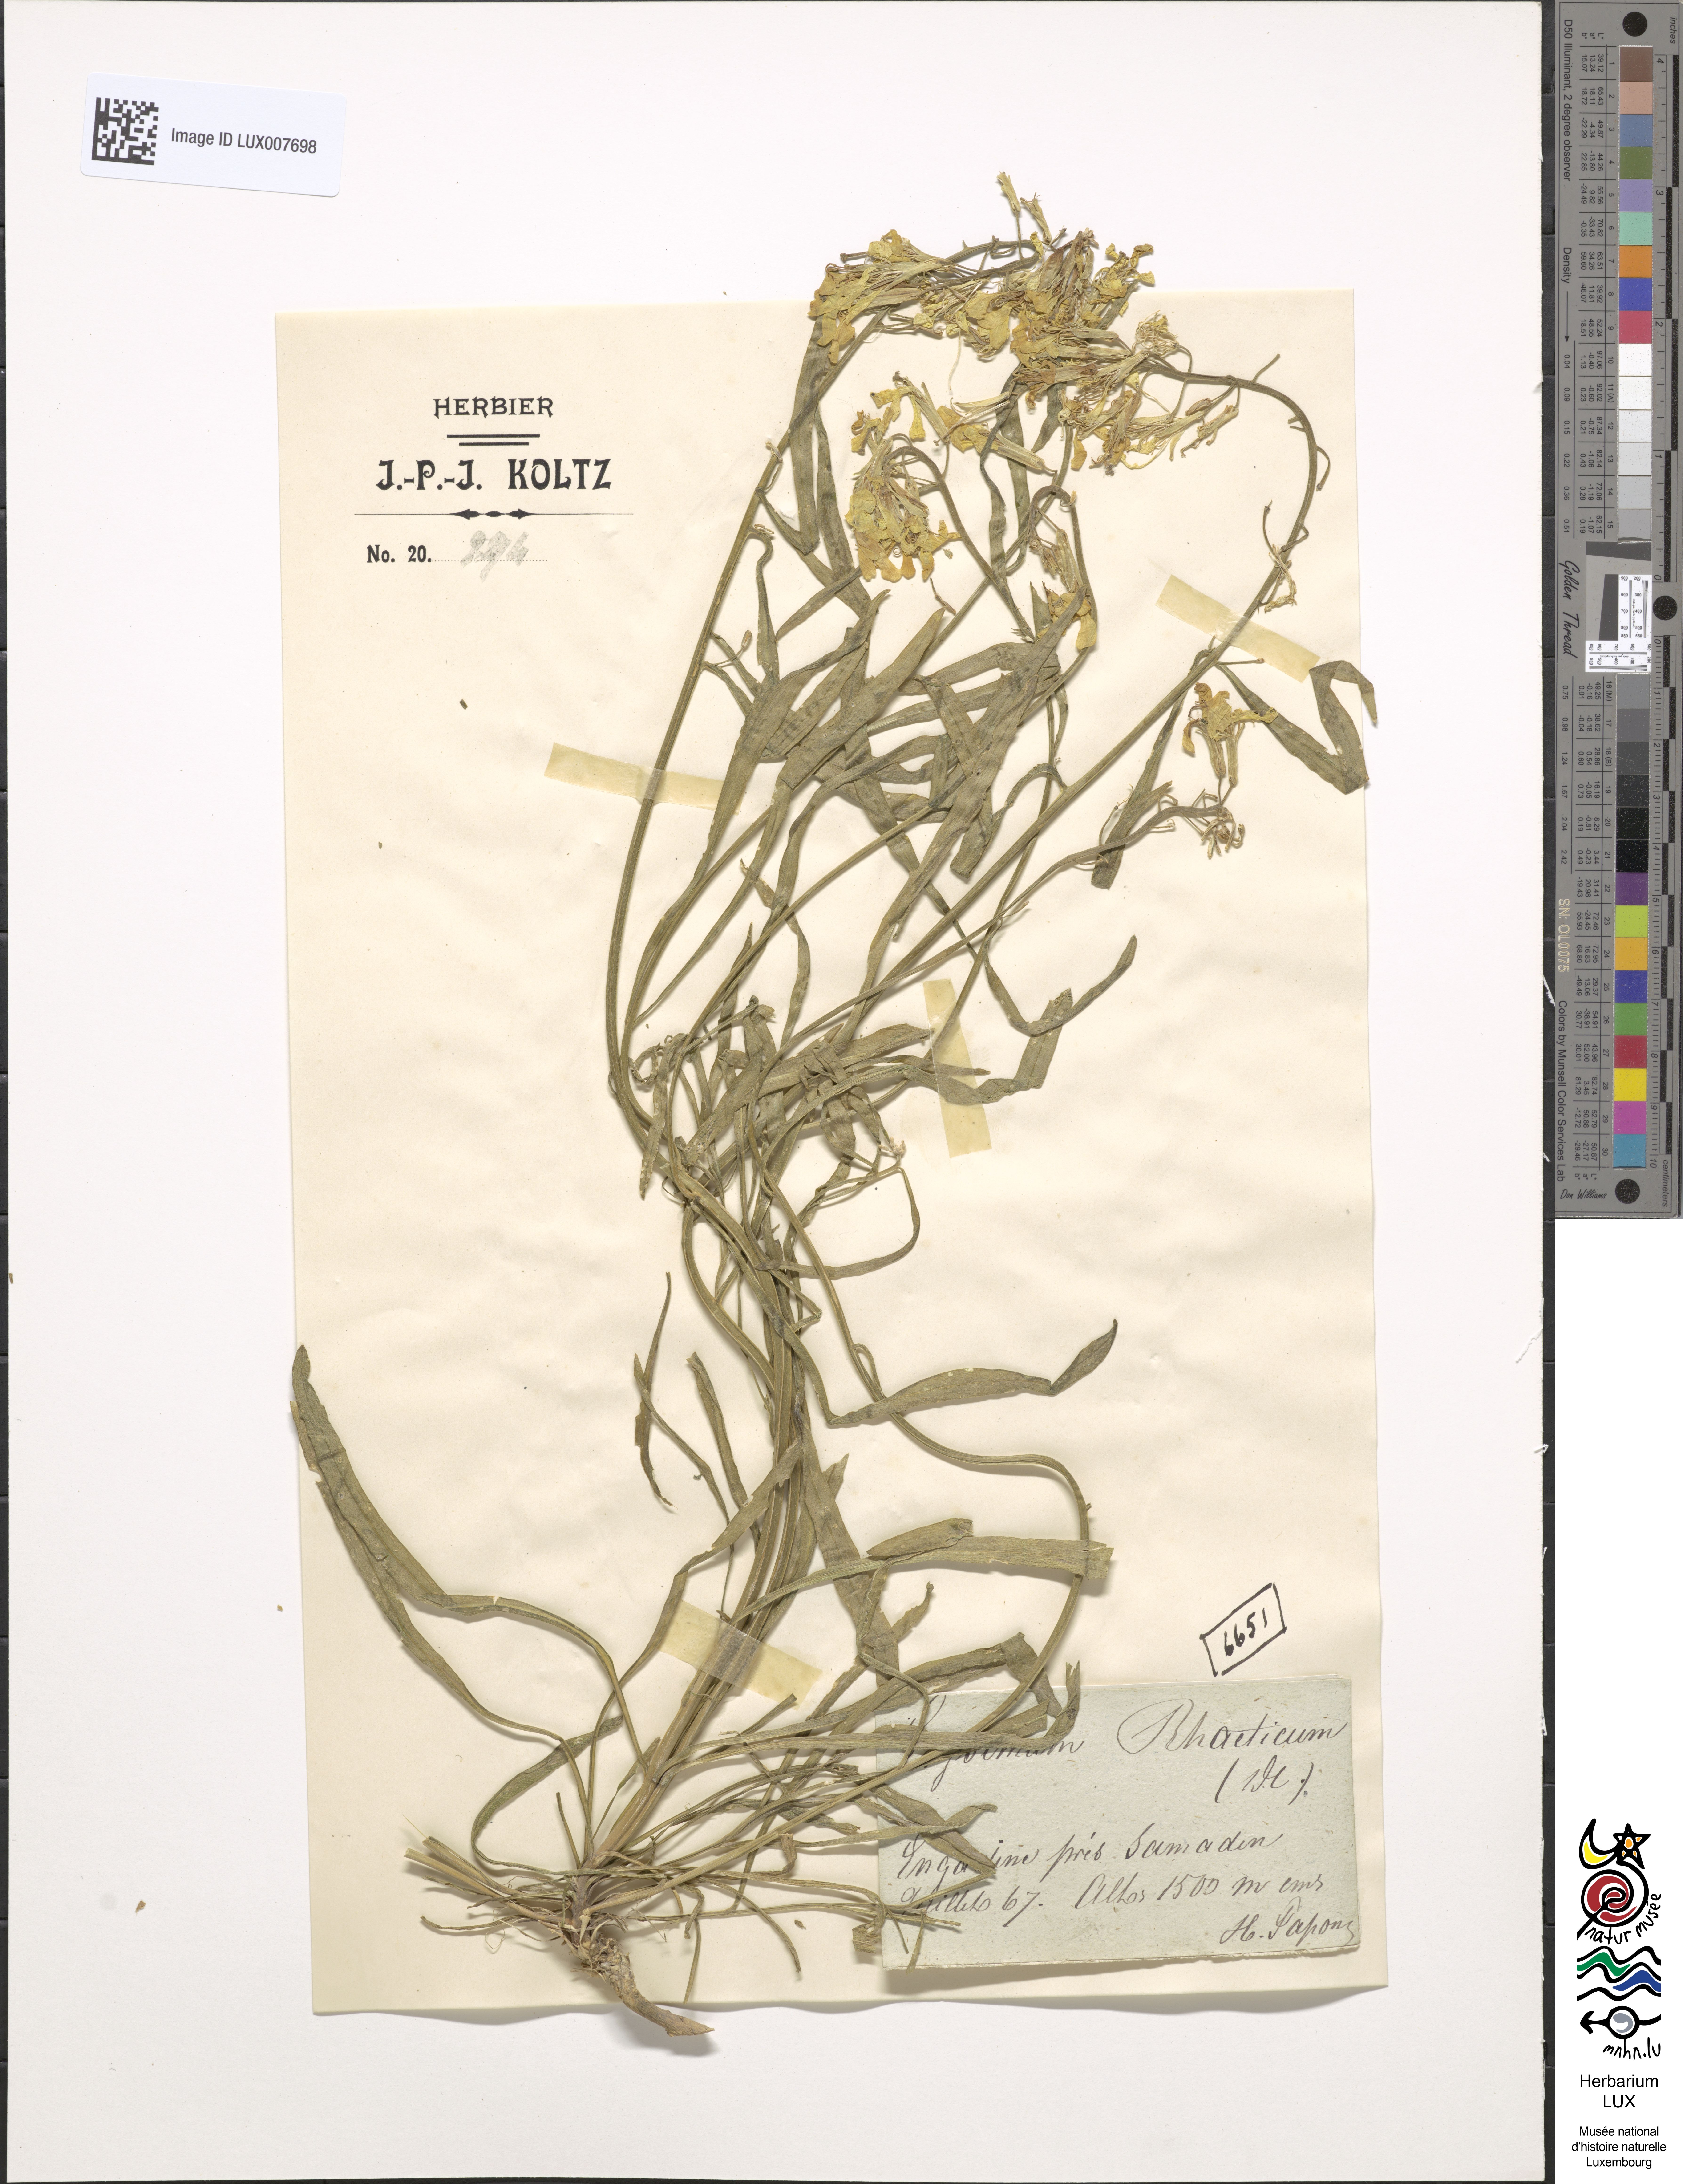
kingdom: Plantae
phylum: Tracheophyta
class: Magnoliopsida
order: Brassicales
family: Brassicaceae
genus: Erysimum
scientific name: Erysimum rhaeticum
